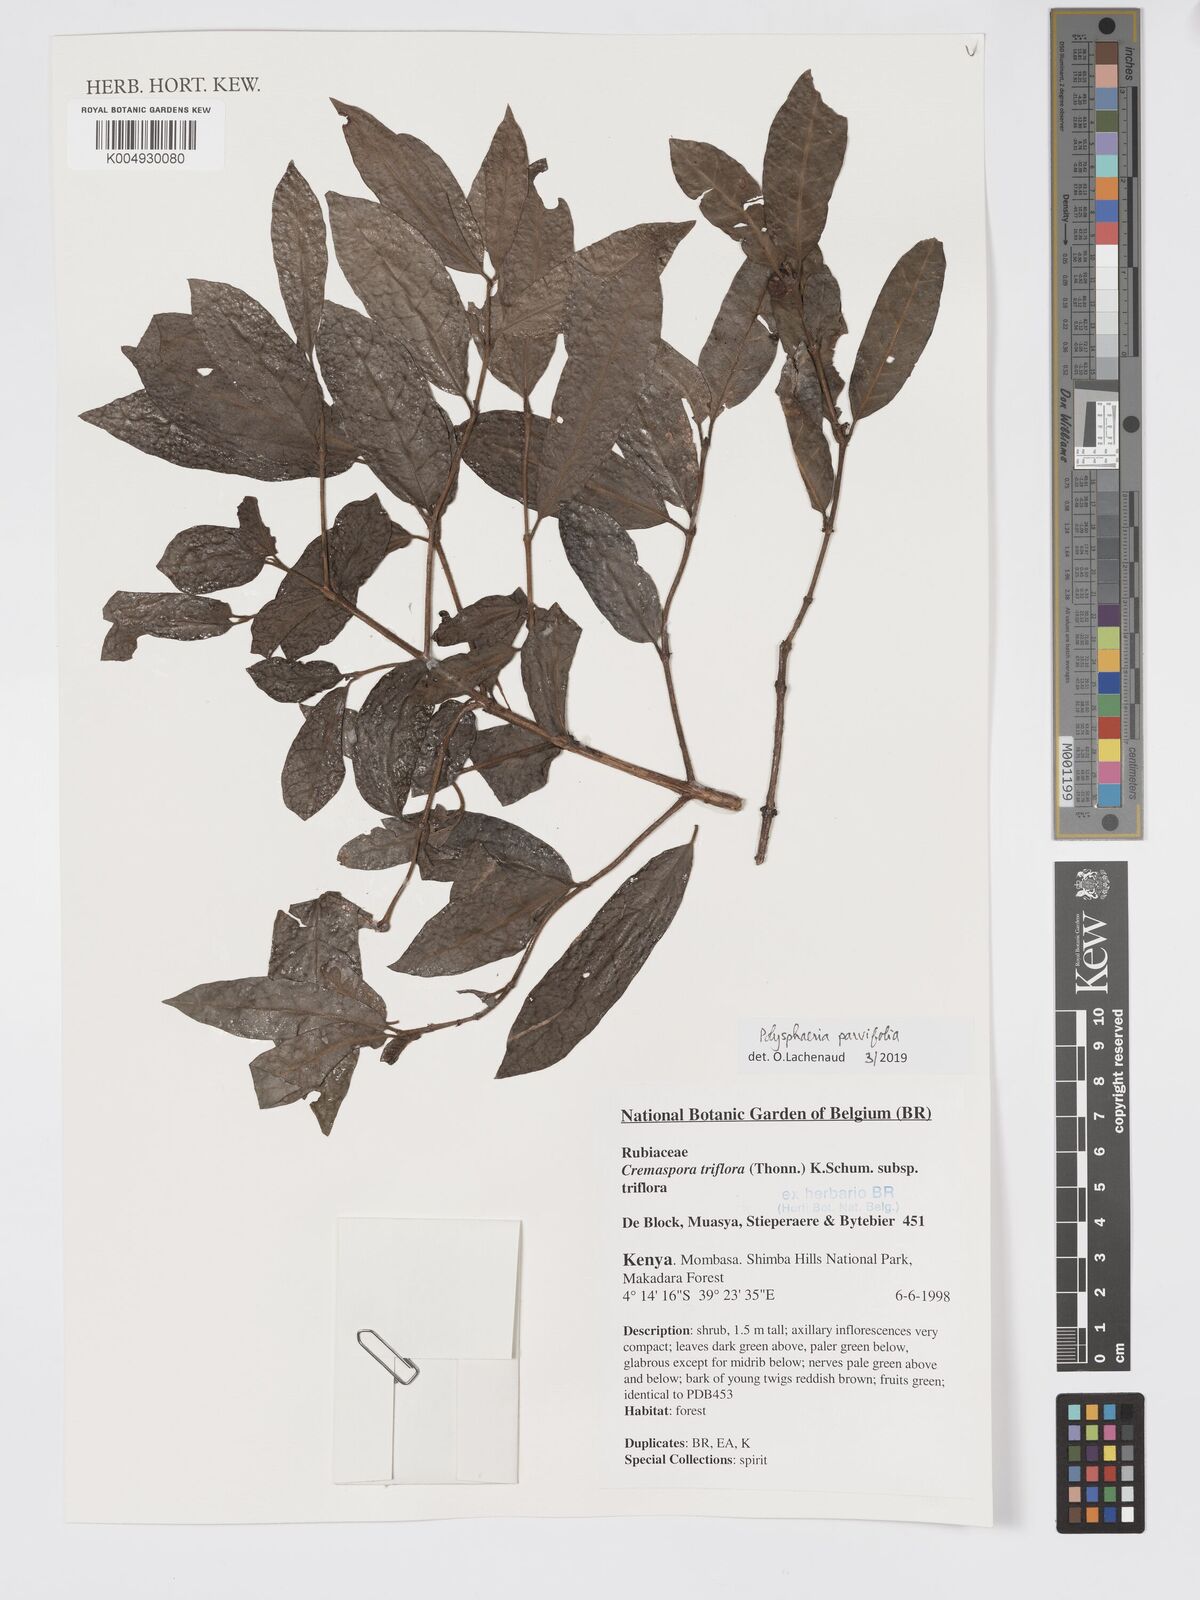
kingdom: Plantae
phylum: Tracheophyta
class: Magnoliopsida
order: Gentianales
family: Rubiaceae
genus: Polysphaeria
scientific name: Polysphaeria parvifolia
